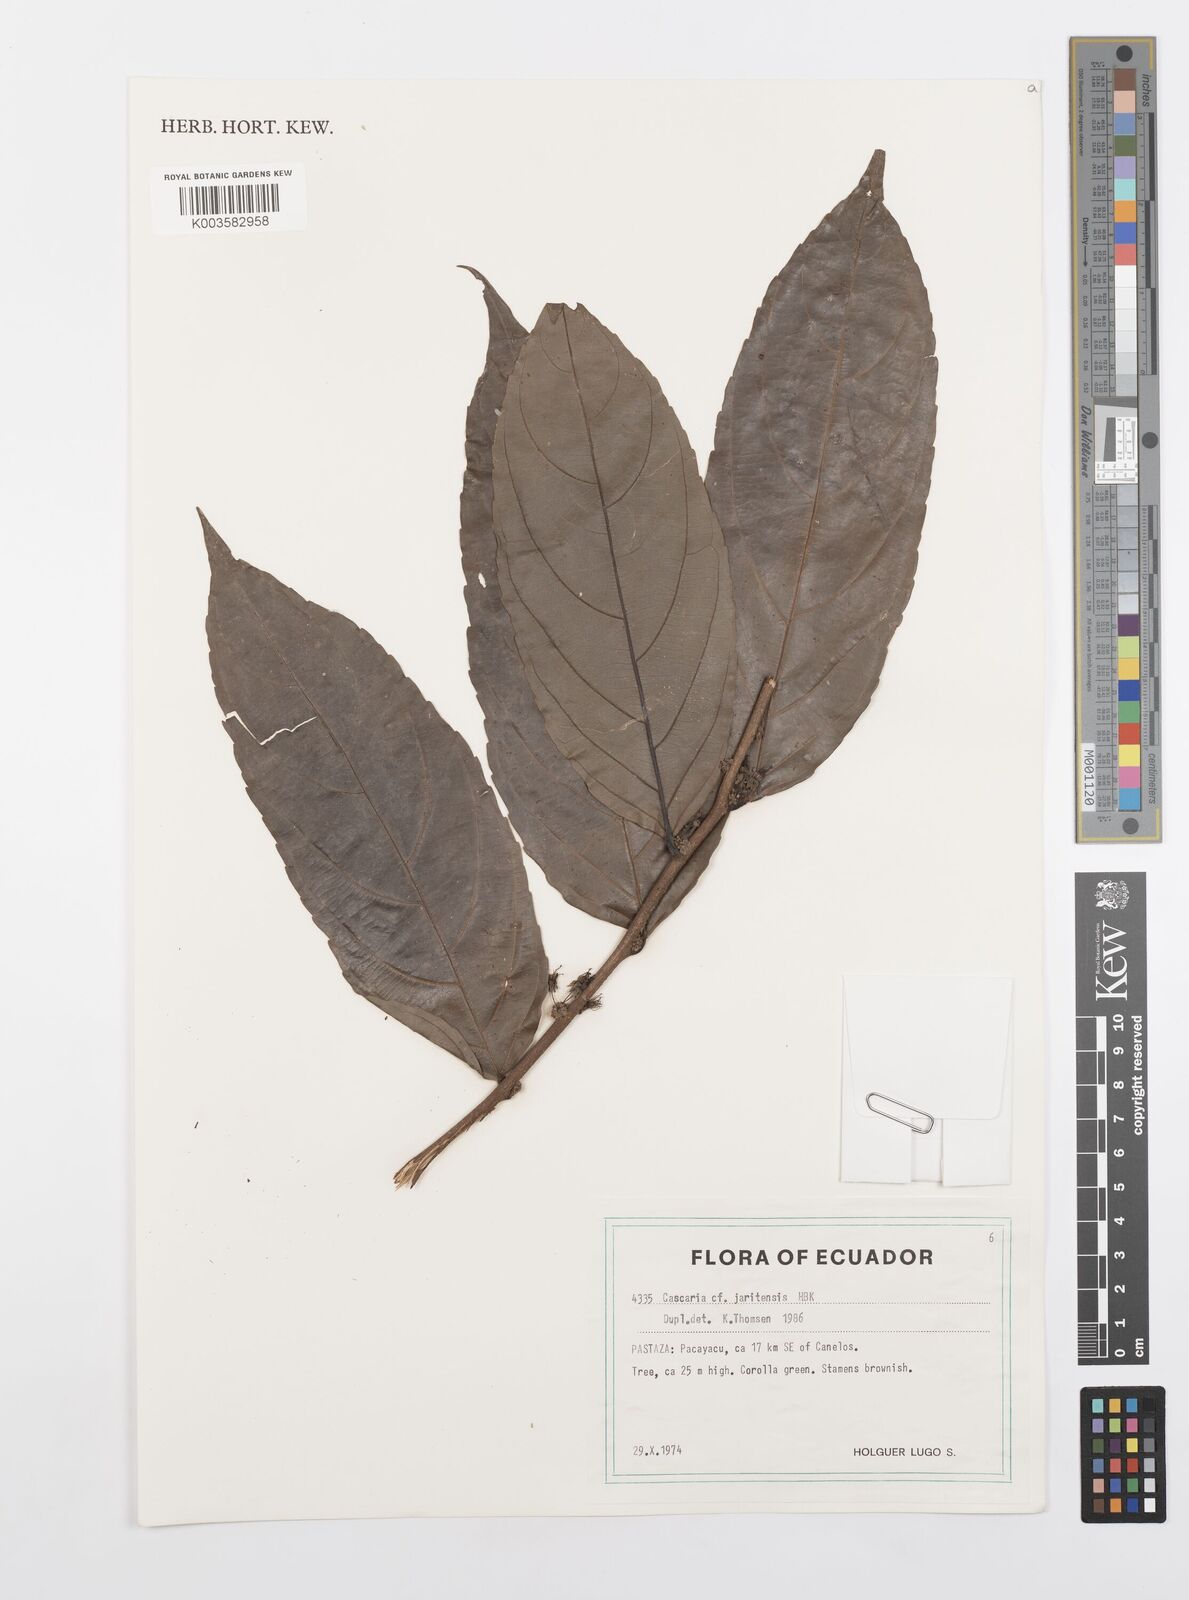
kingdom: Plantae
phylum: Tracheophyta
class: Magnoliopsida
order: Malpighiales
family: Salicaceae
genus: Piparea
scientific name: Piparea multiflora
